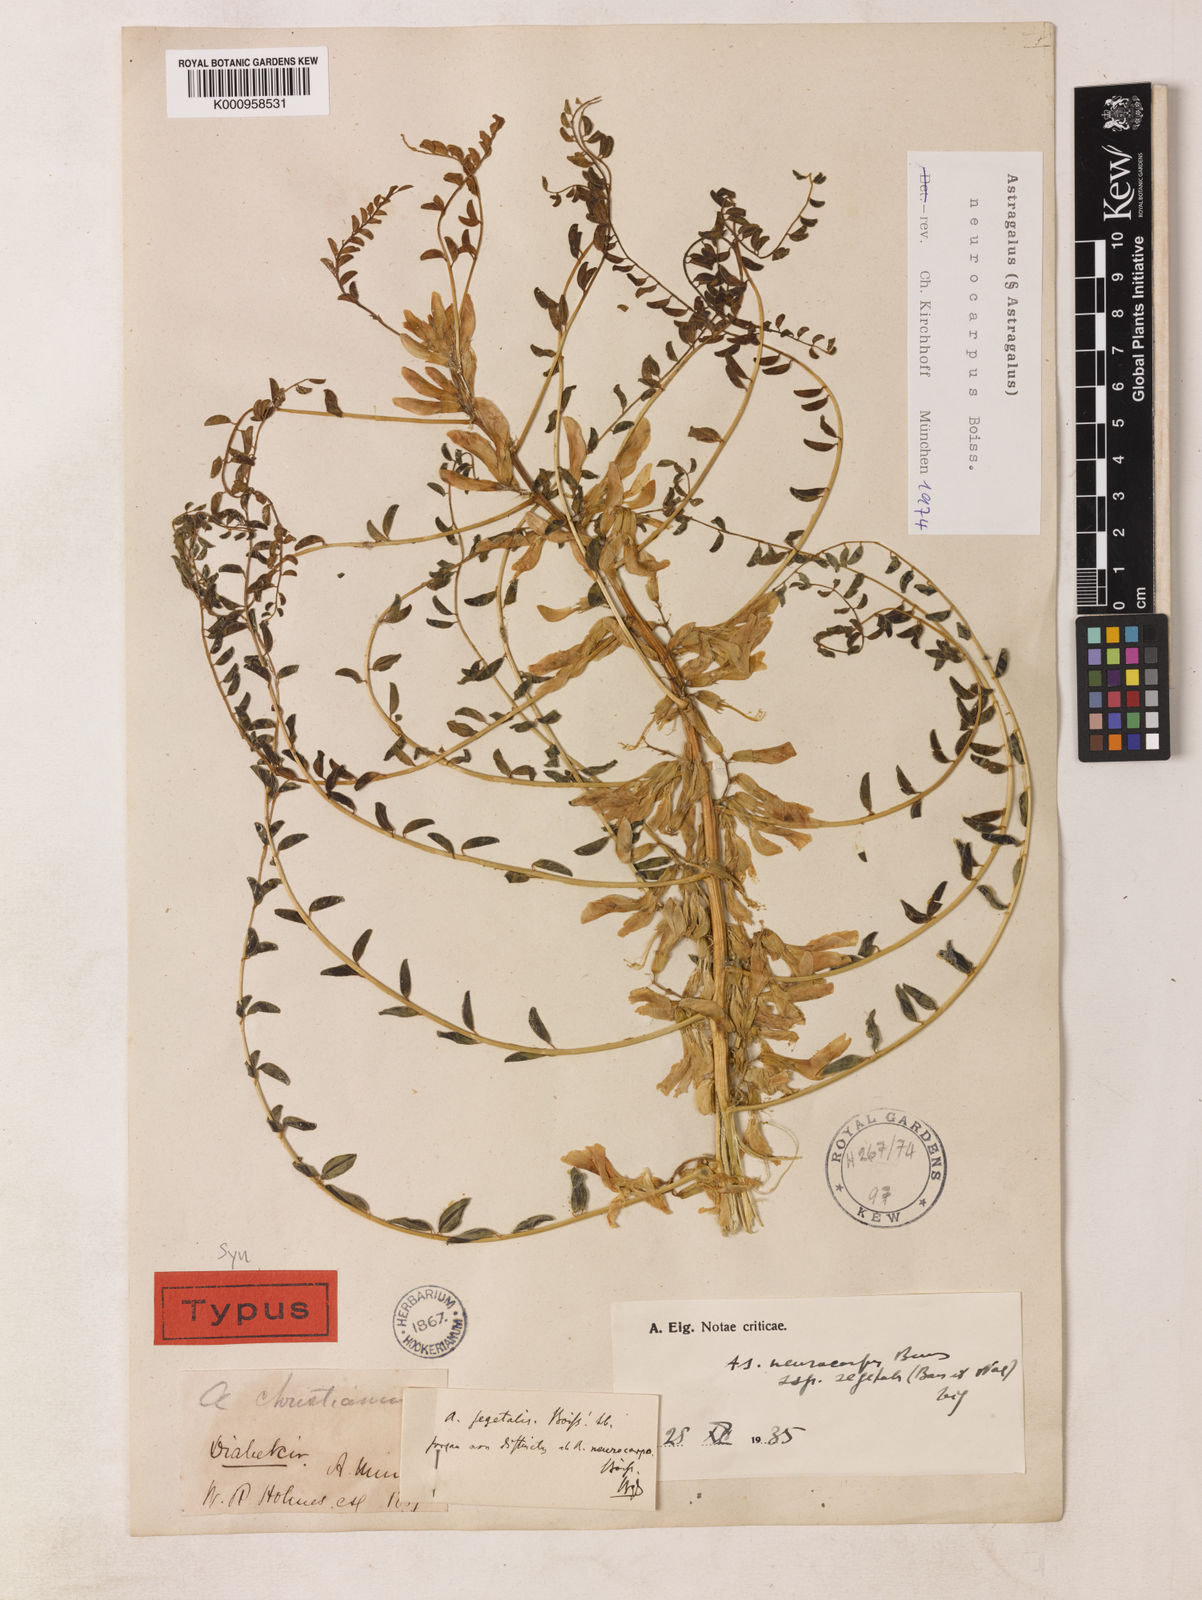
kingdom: Plantae
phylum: Tracheophyta
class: Magnoliopsida
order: Fabales
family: Fabaceae
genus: Astragalus
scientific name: Astragalus
